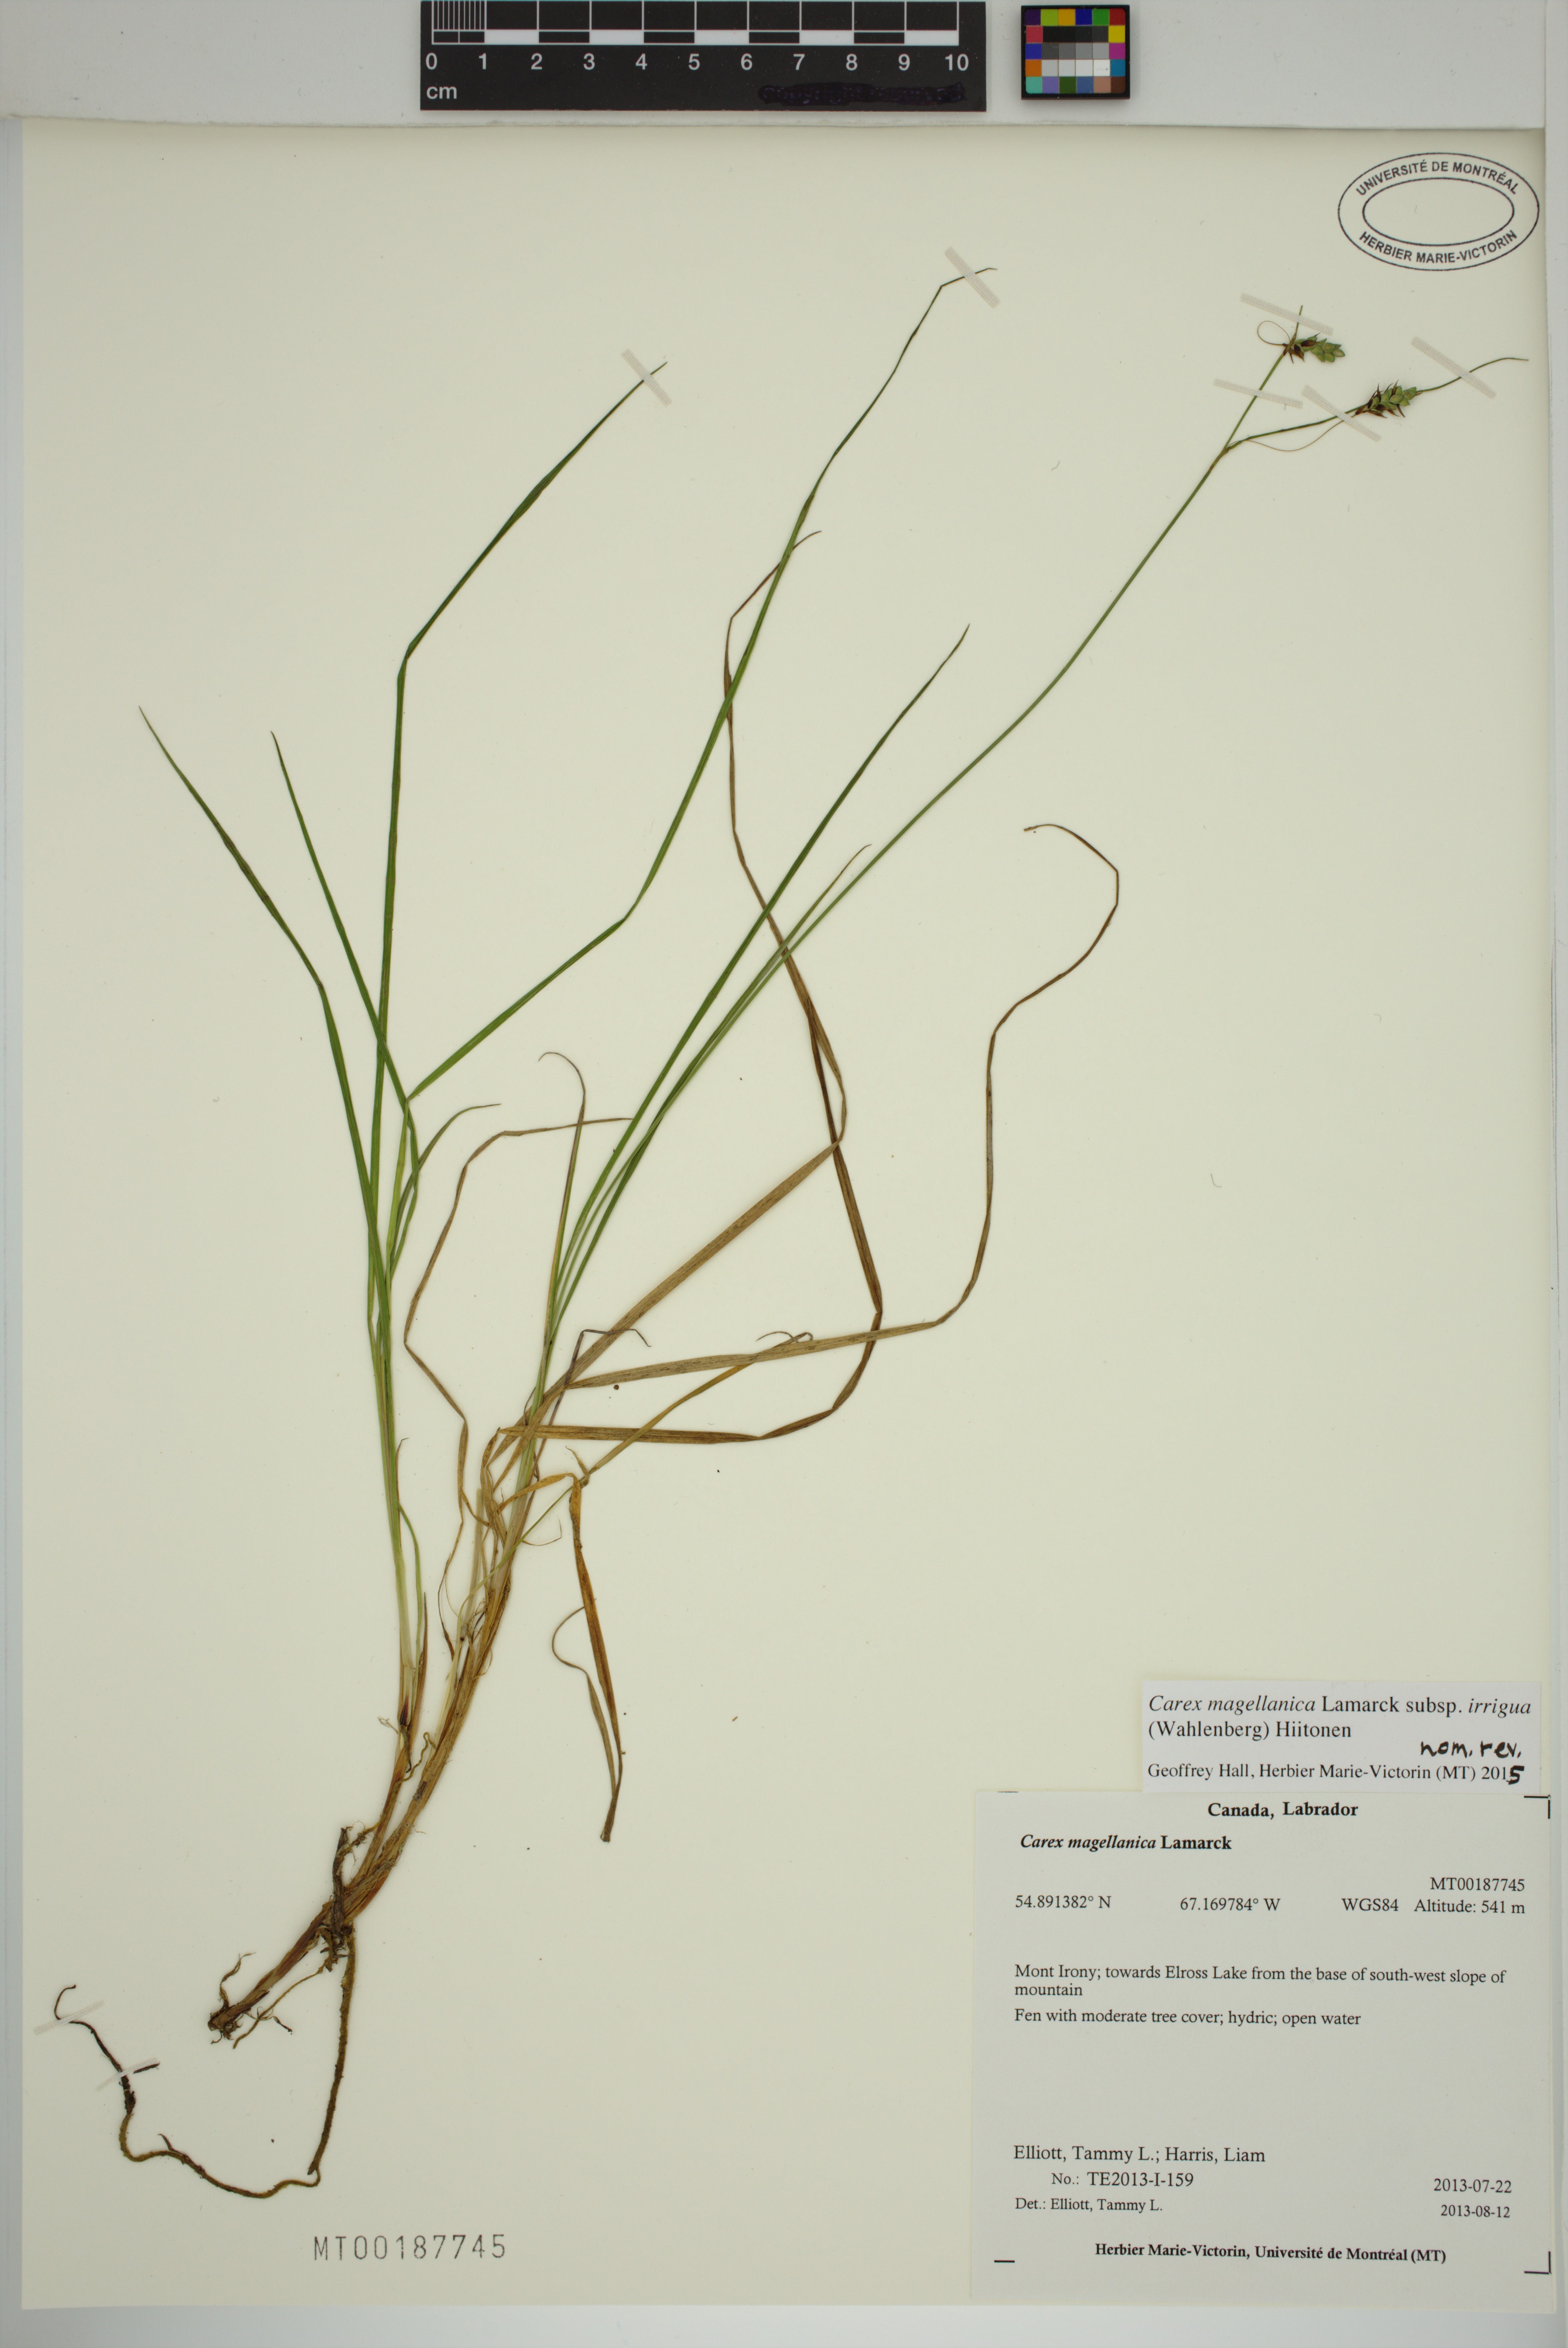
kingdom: Plantae
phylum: Tracheophyta
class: Liliopsida
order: Poales
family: Cyperaceae
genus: Carex
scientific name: Carex magellanica
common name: Bog sedge
